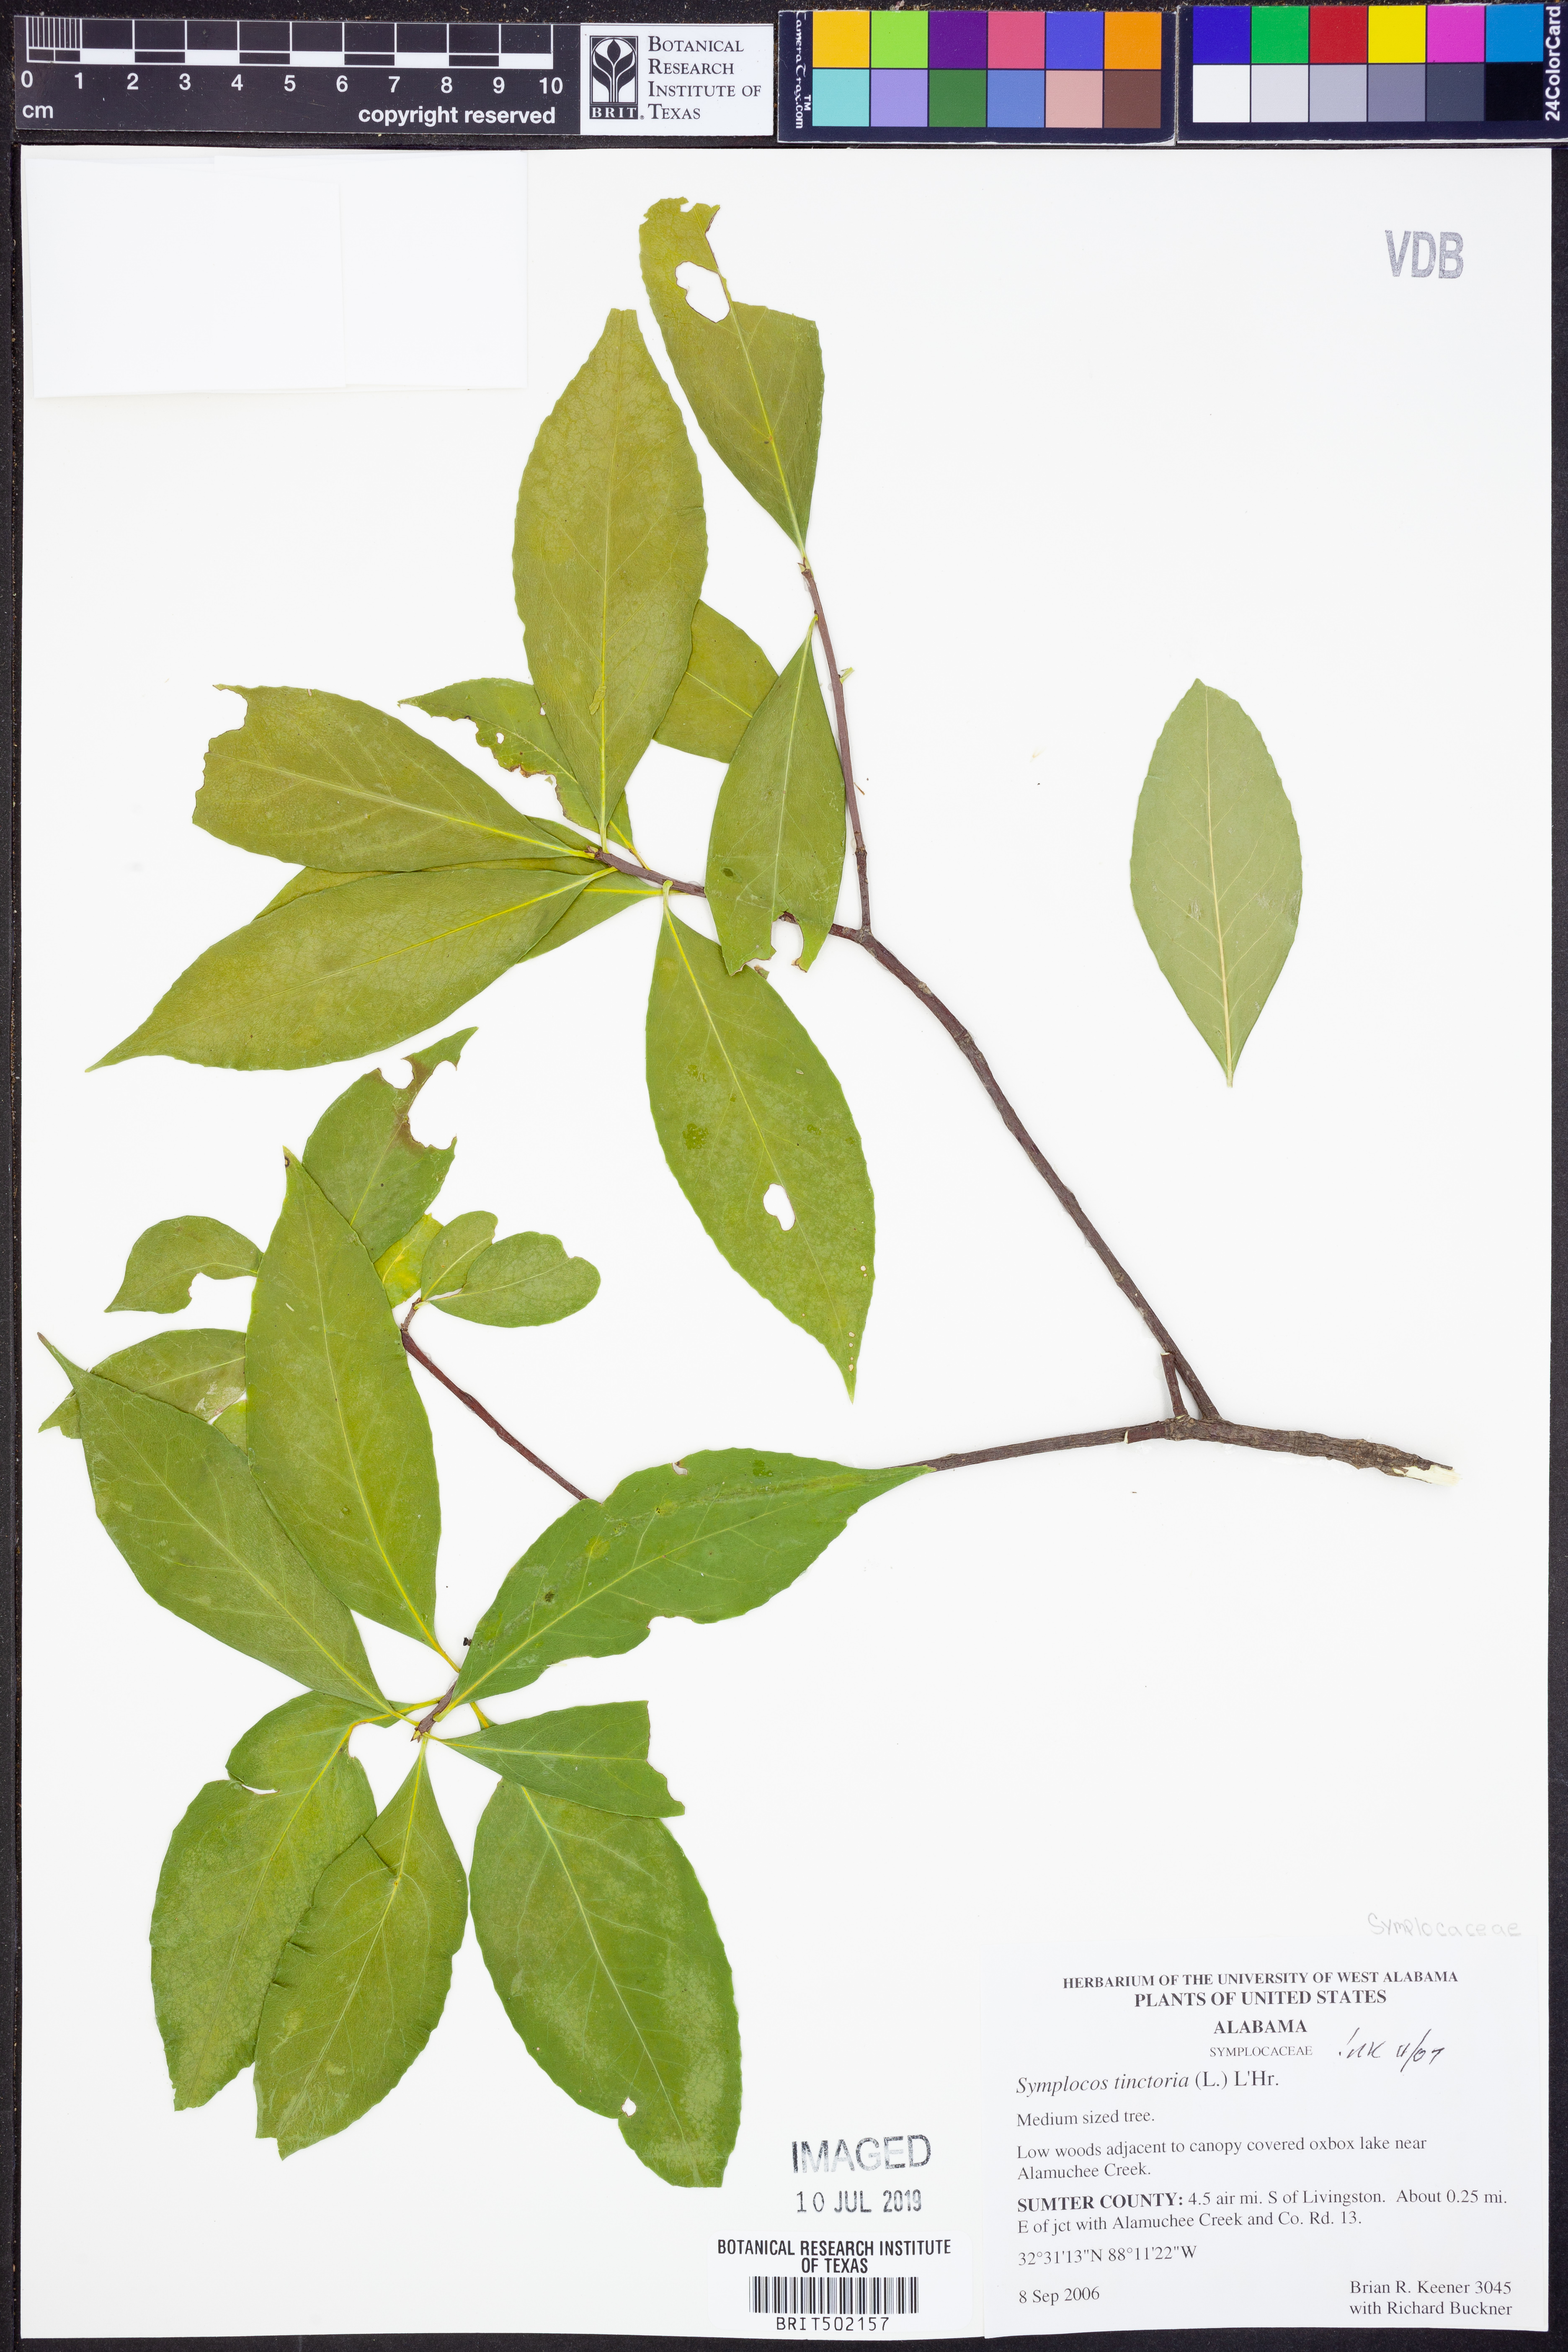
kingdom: Plantae
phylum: Tracheophyta
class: Magnoliopsida
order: Ericales
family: Symplocaceae
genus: Symplocos
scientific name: Symplocos tinctoria
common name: Horse-sugar
